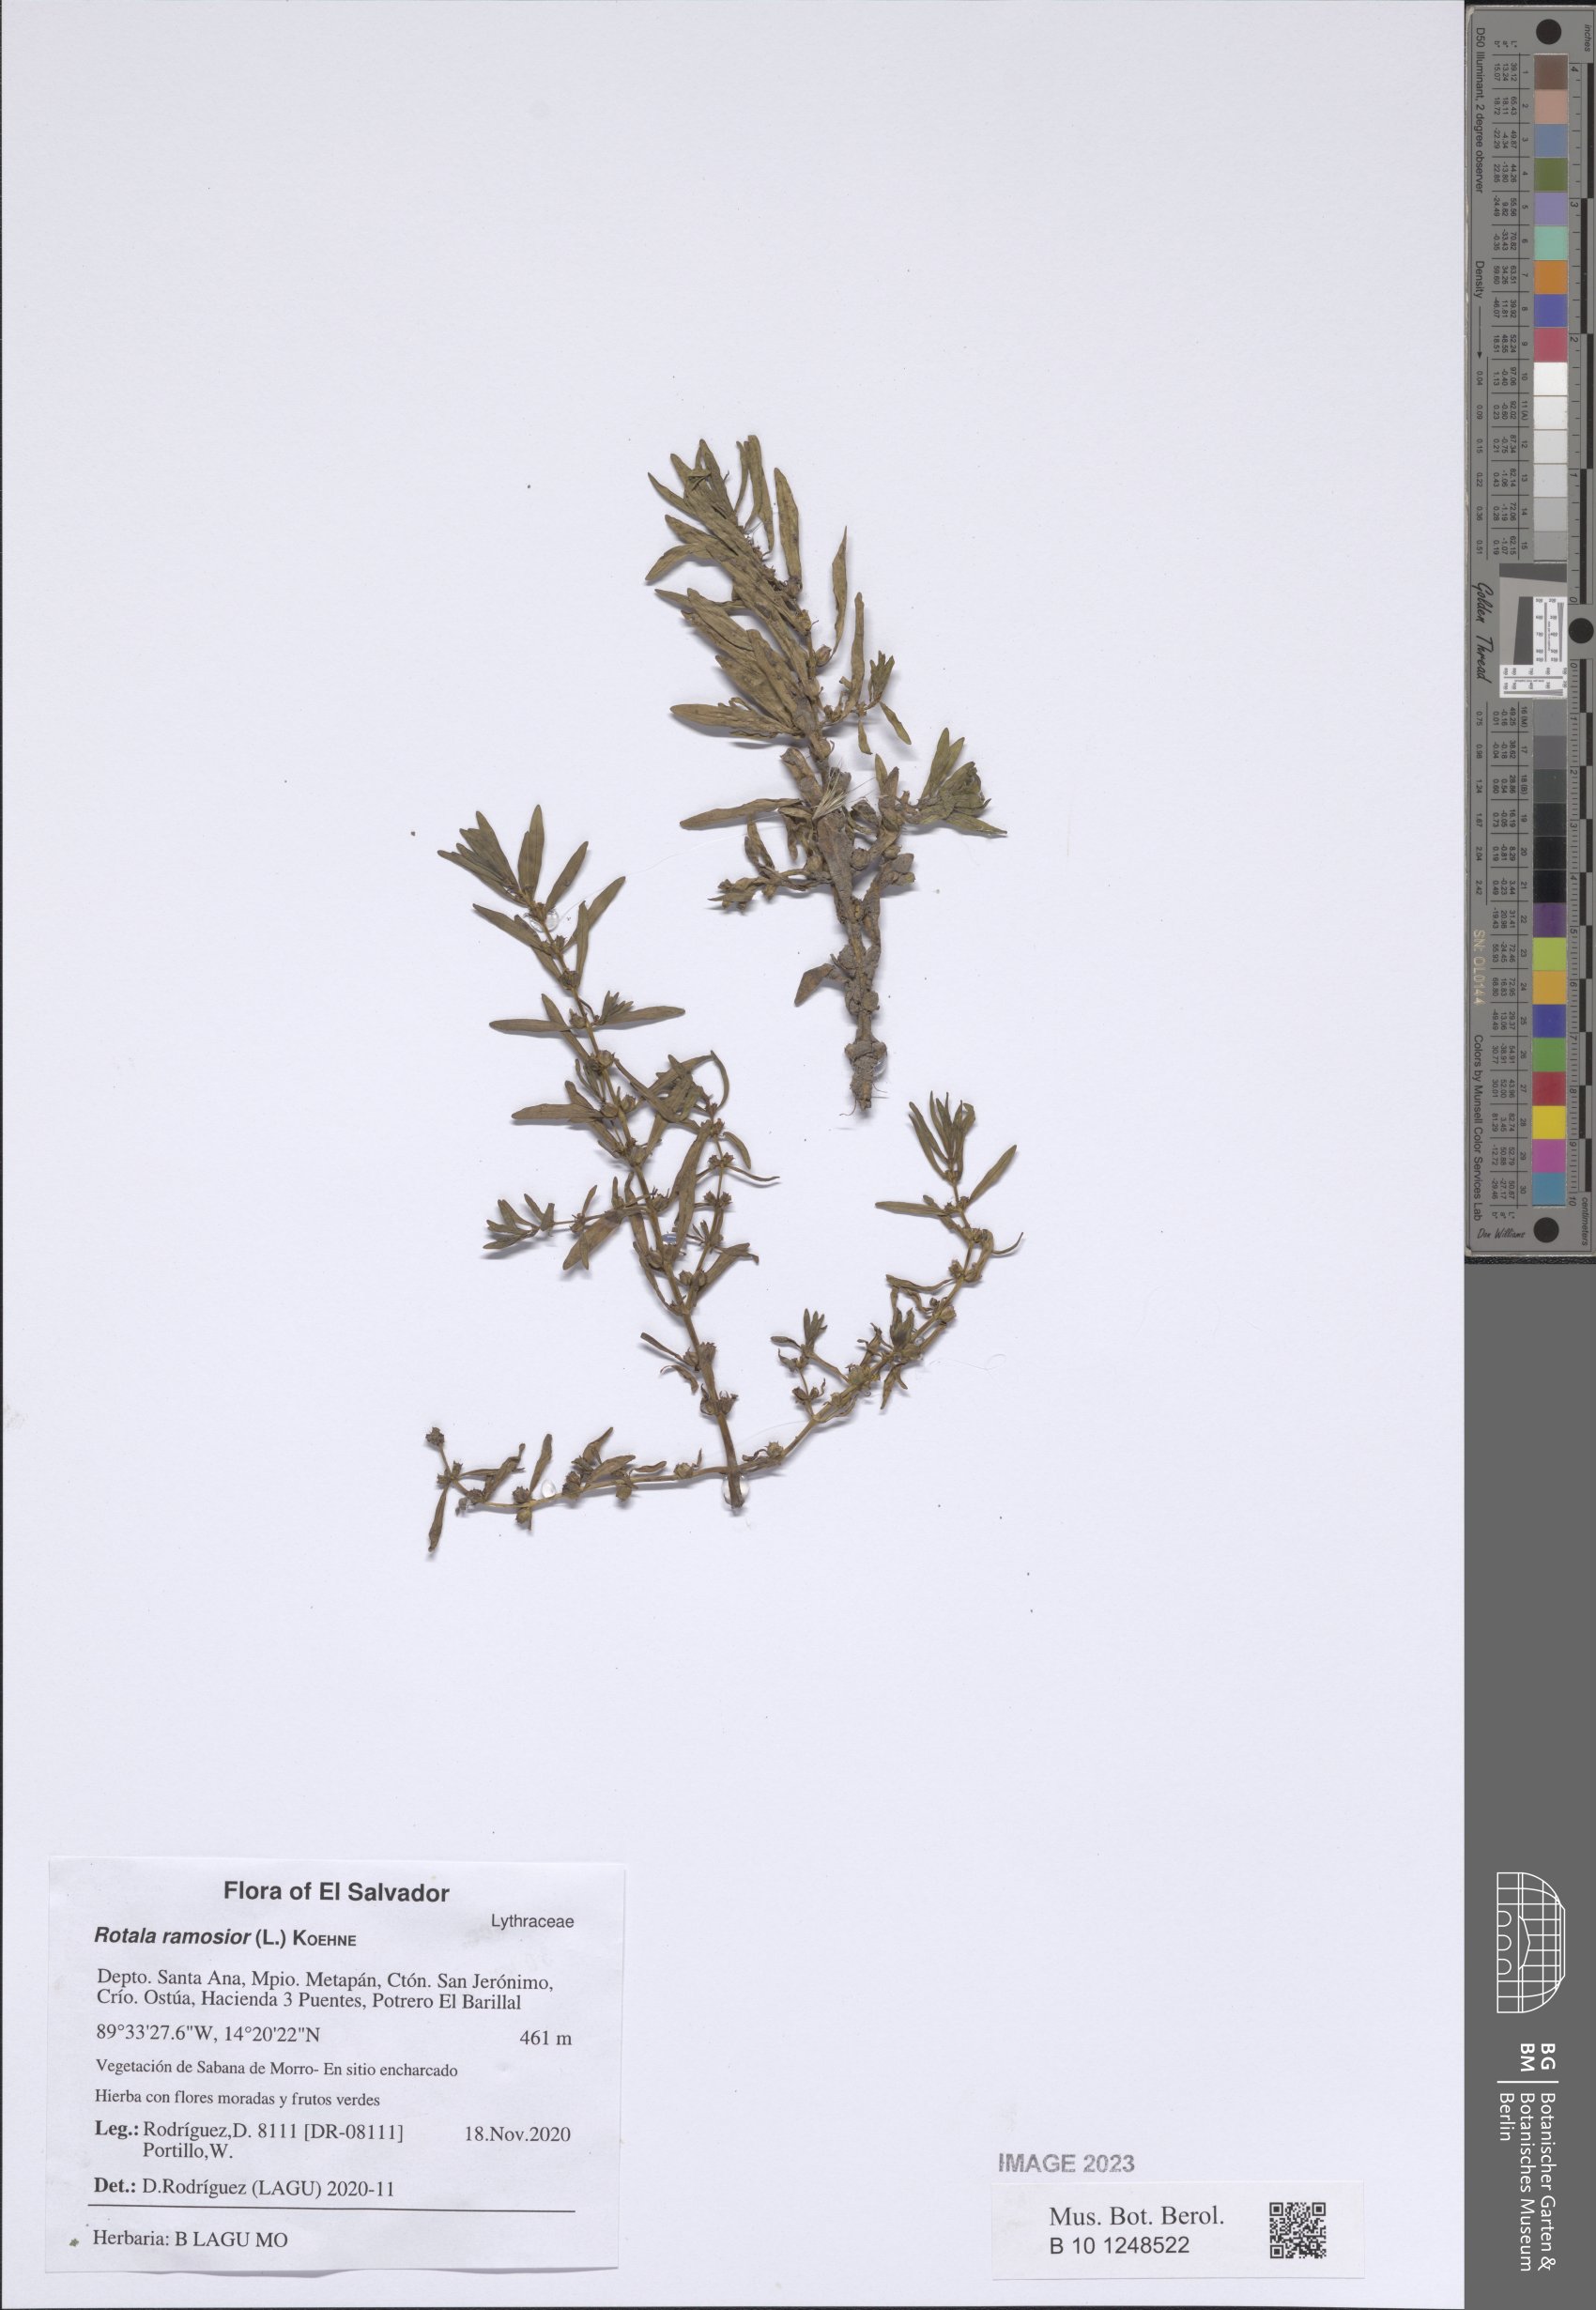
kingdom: Plantae
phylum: Tracheophyta
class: Magnoliopsida
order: Myrtales
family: Lythraceae
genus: Rotala
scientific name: Rotala ramosior
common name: Lowland rotala
